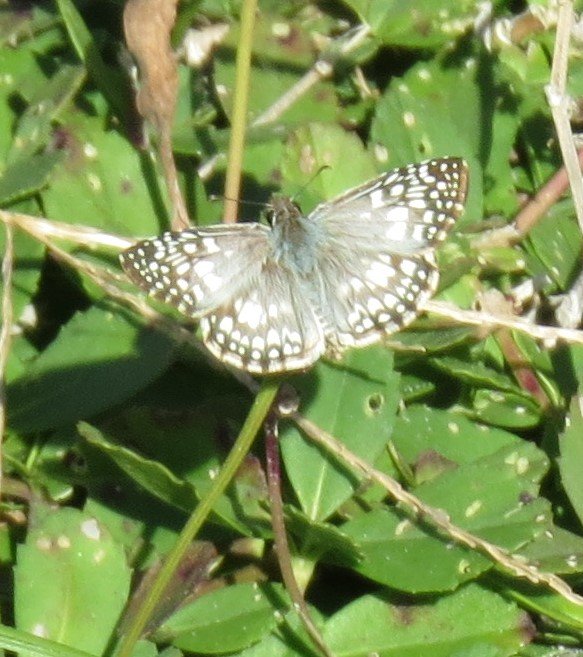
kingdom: Animalia
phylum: Arthropoda
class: Insecta
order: Lepidoptera
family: Hesperiidae
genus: Pyrgus
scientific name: Pyrgus oileus
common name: Tropical Checkered-Skipper
